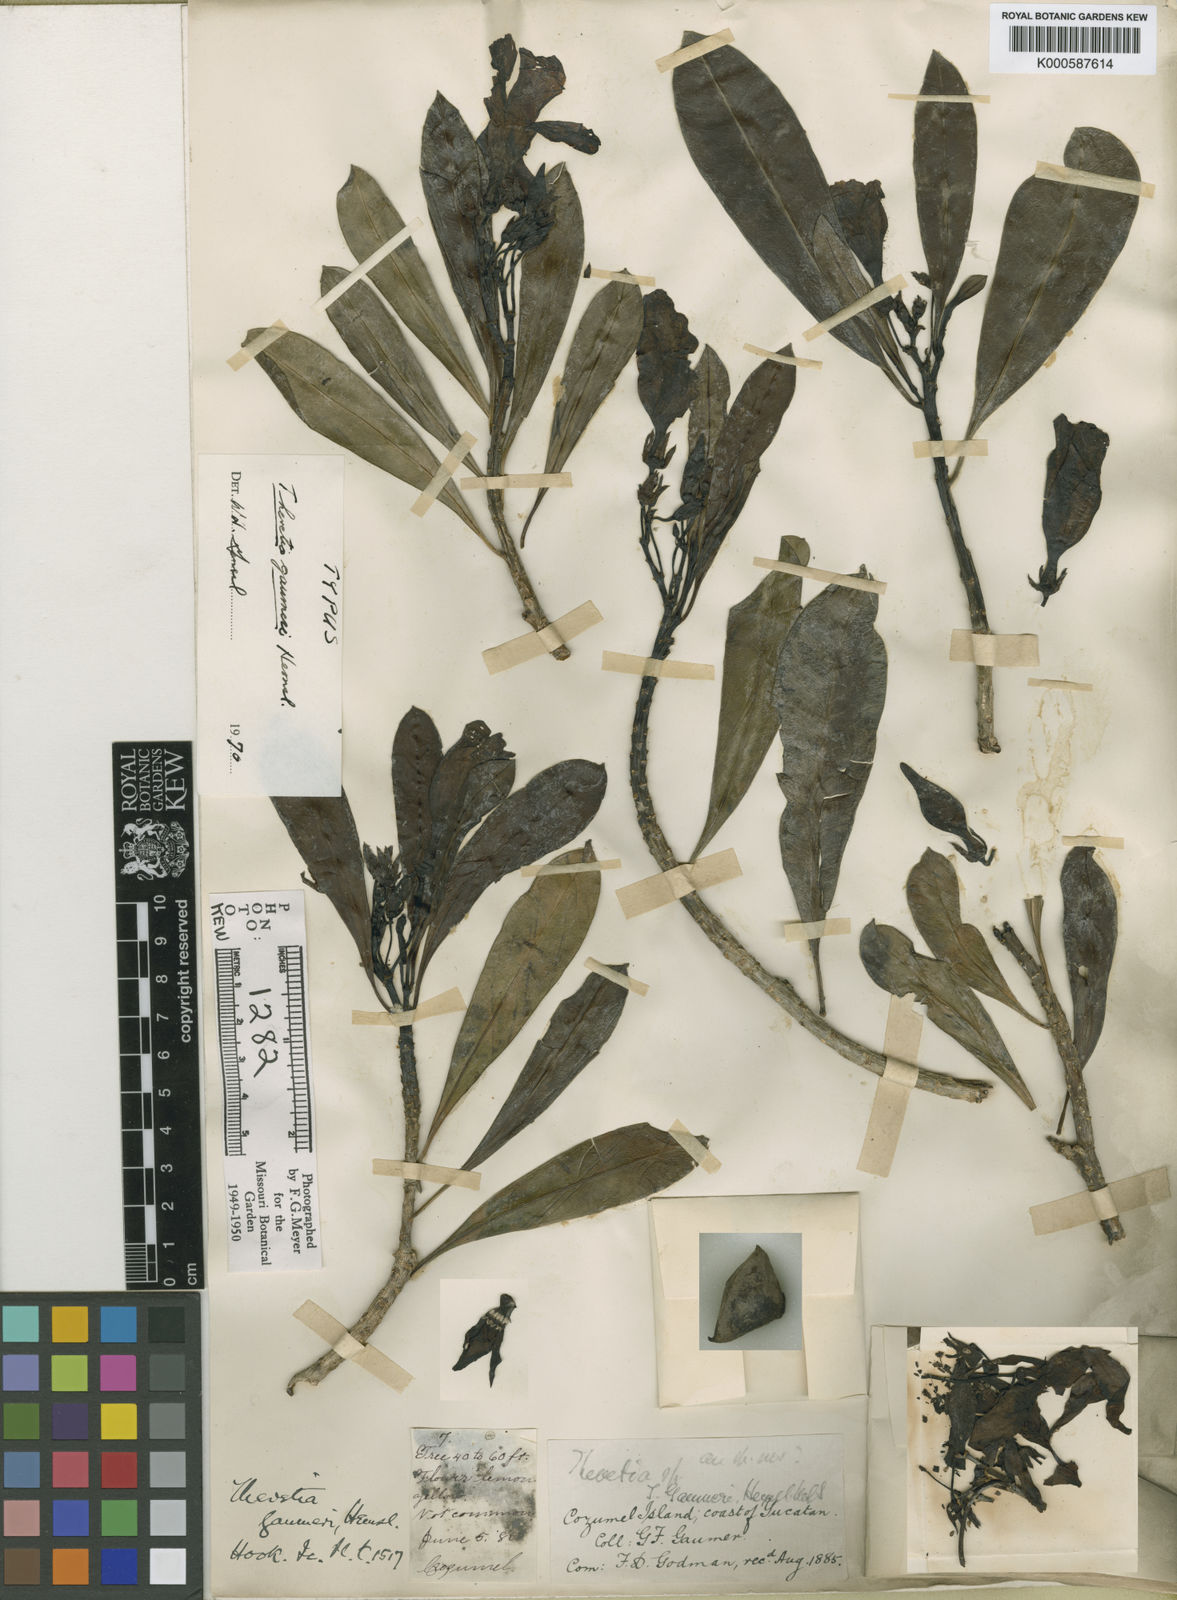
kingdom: Plantae
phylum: Tracheophyta
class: Magnoliopsida
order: Gentianales
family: Apocynaceae
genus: Cascabela
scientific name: Cascabela gaumeri
